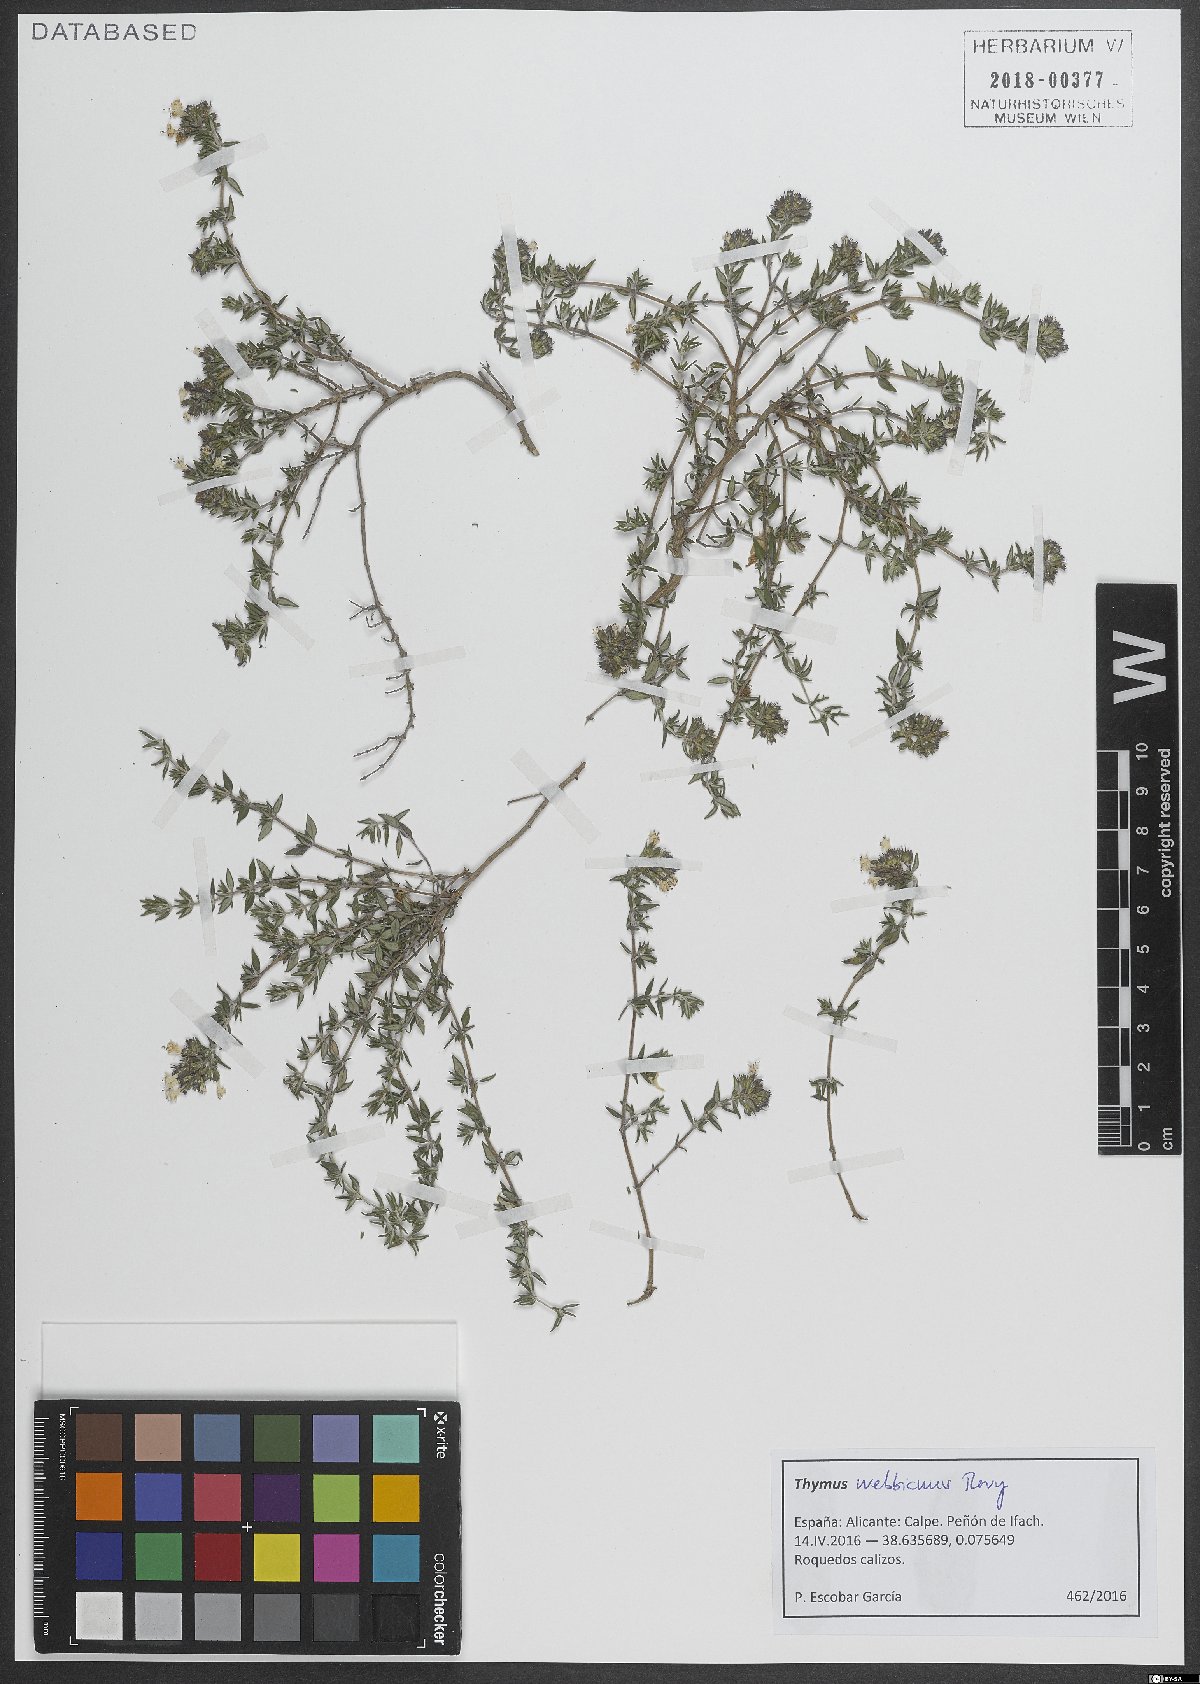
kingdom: Plantae
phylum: Tracheophyta
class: Magnoliopsida
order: Lamiales
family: Lamiaceae
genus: Thymus
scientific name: Thymus vulgaris
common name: Garden thyme
